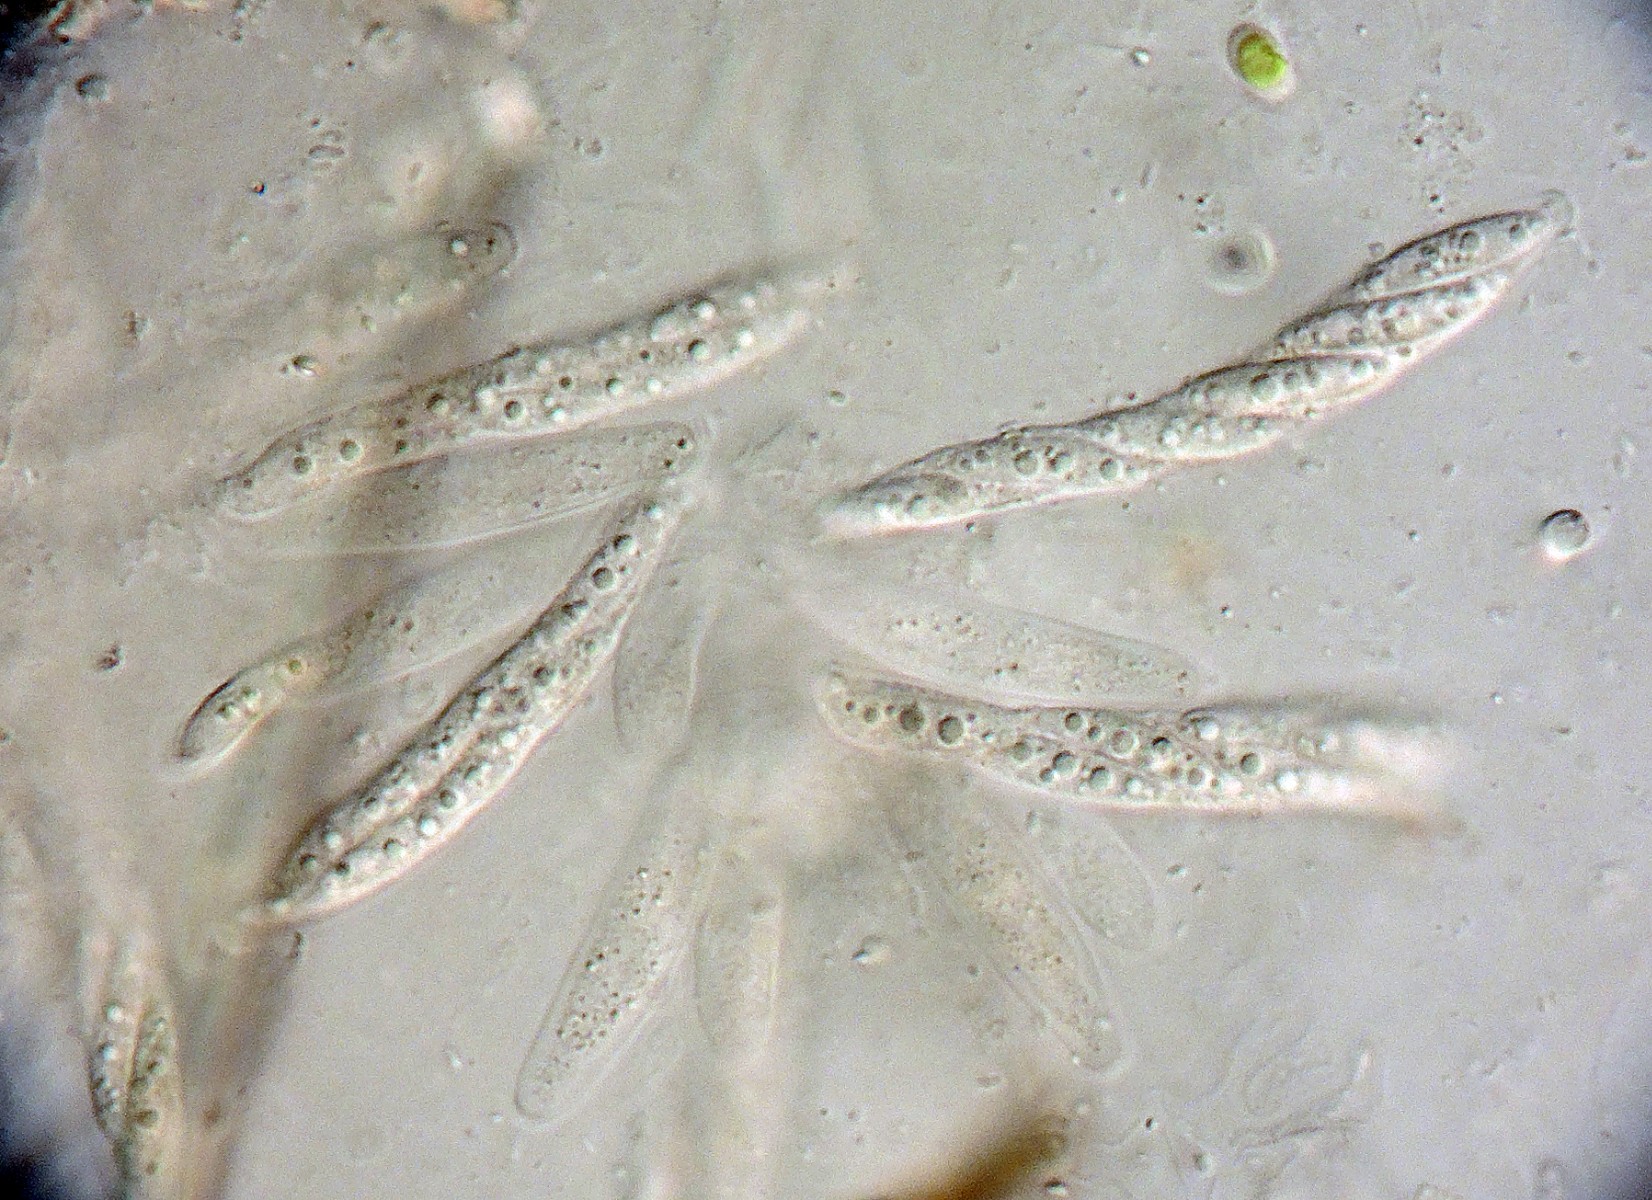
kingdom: Fungi
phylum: Ascomycota
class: Sordariomycetes
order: Hypocreales
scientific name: Hypocreales
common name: kødkerneordenen
